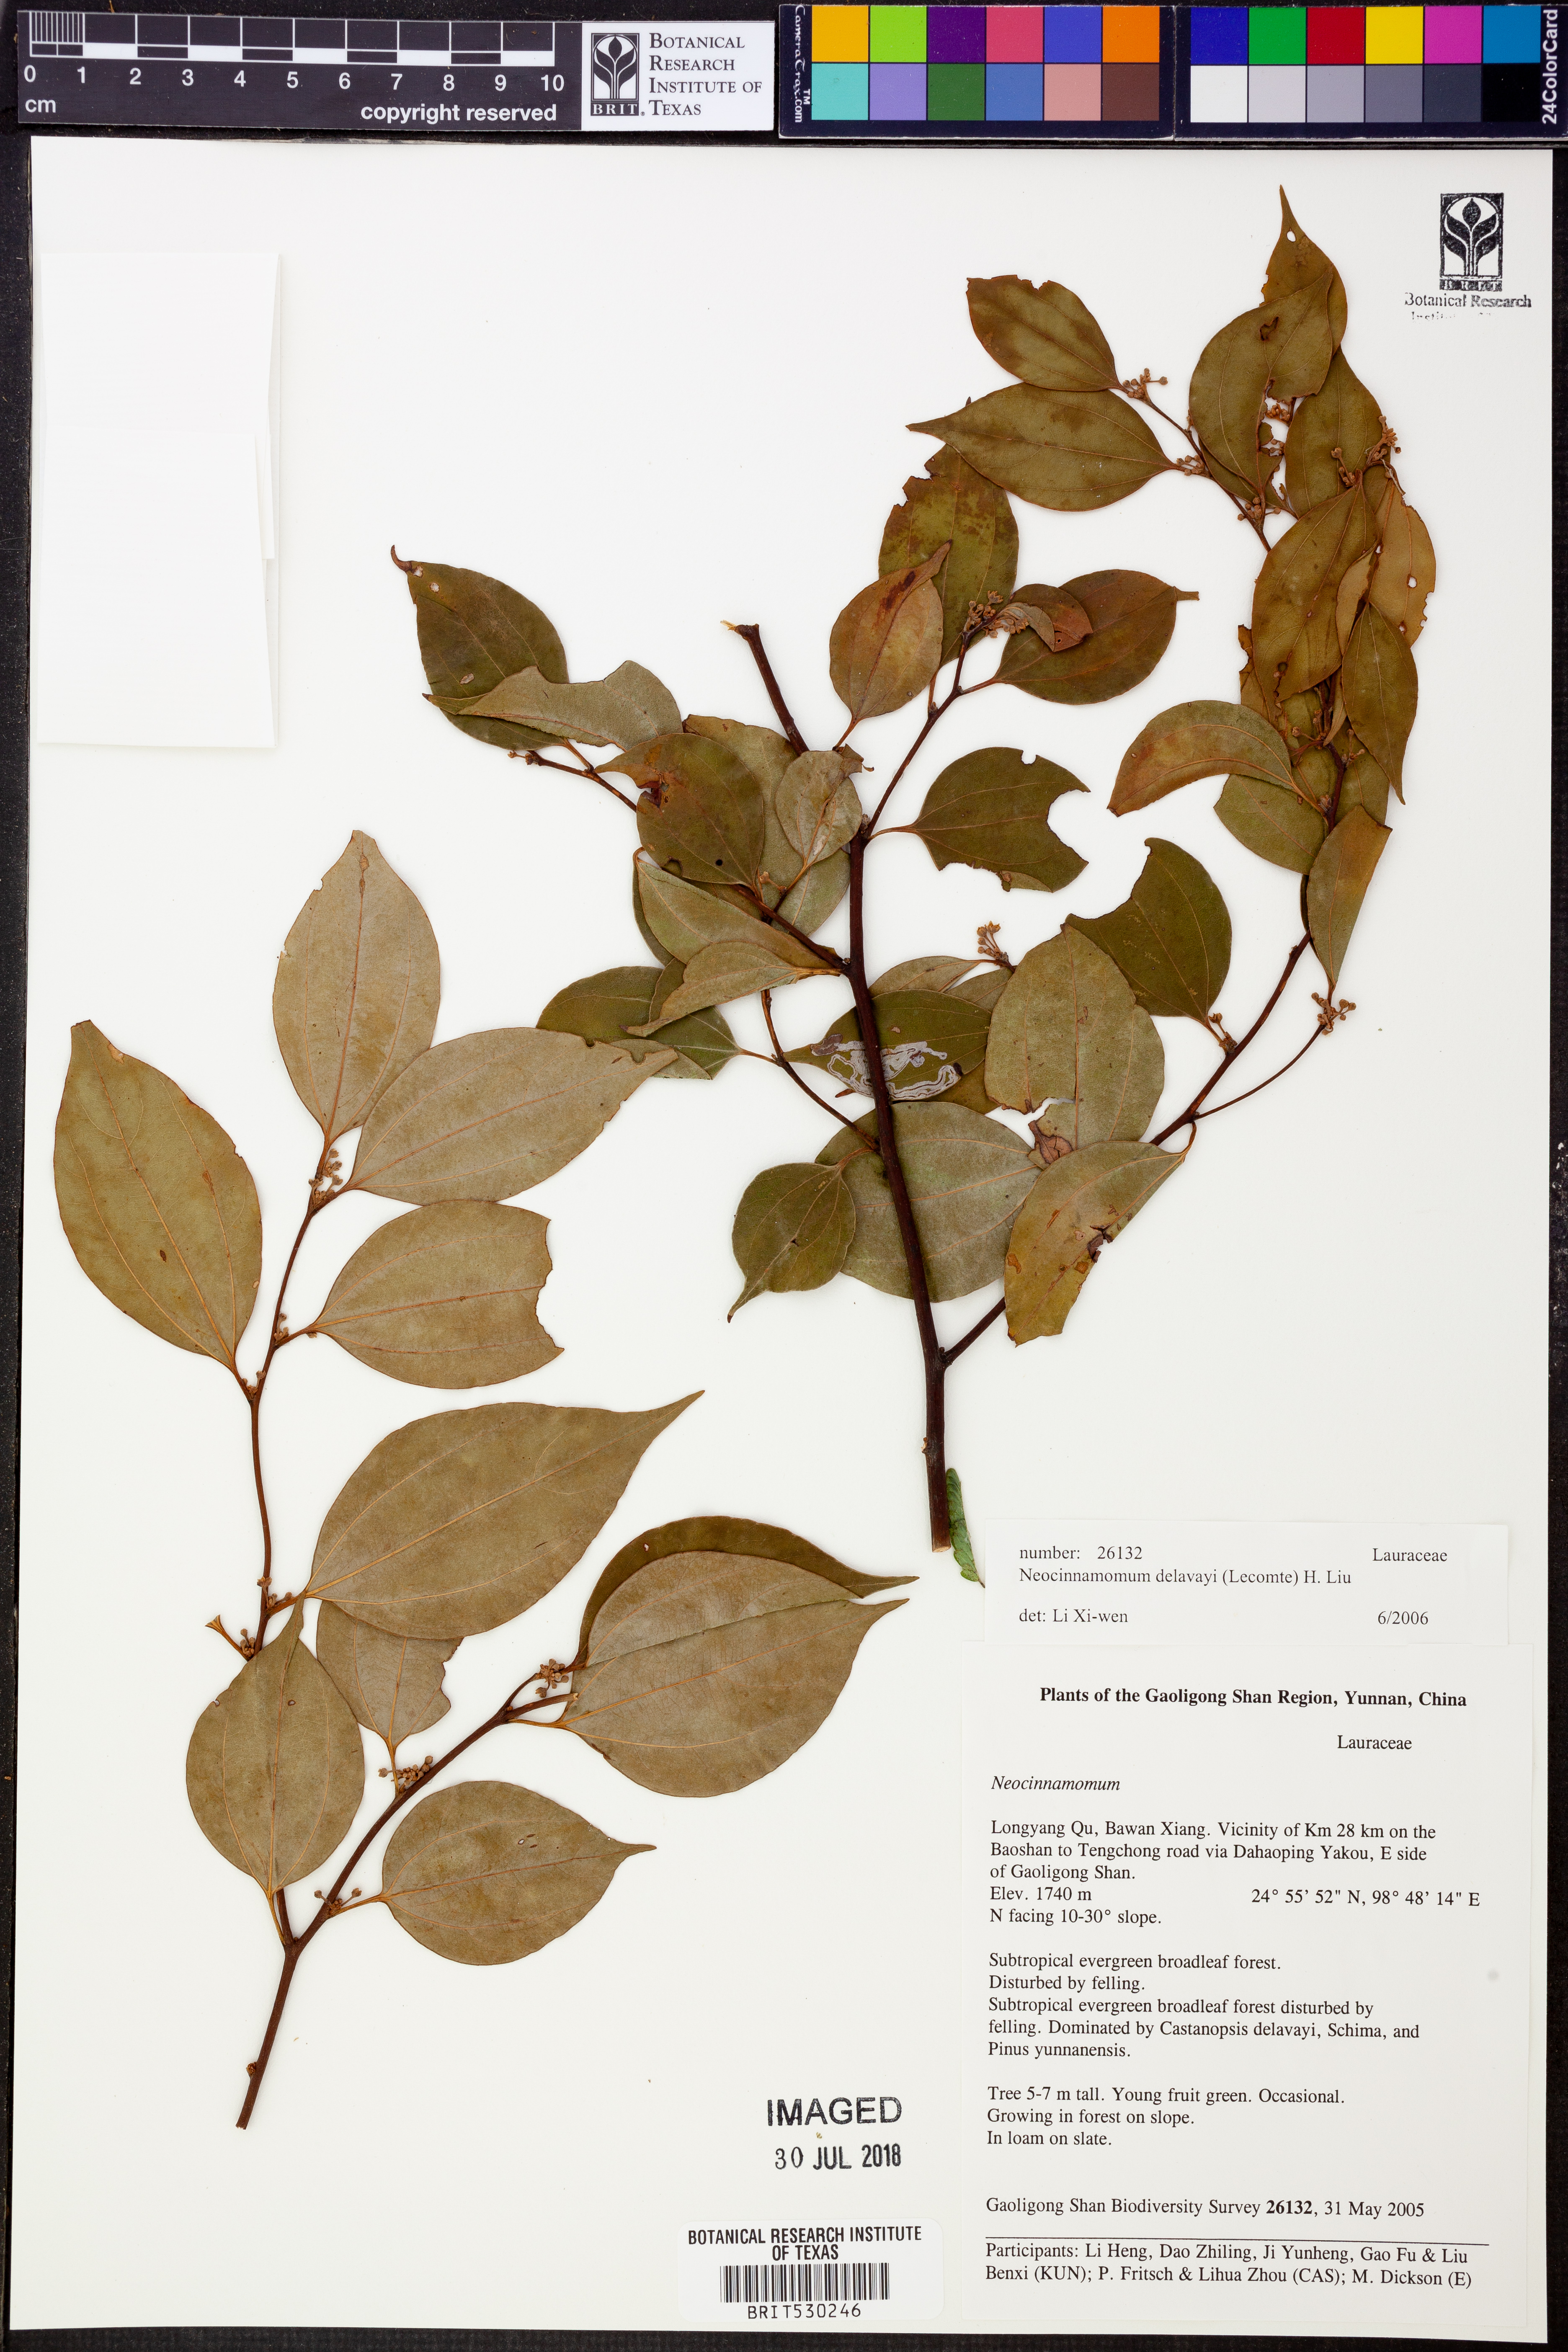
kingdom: Plantae
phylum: Tracheophyta
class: Magnoliopsida
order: Laurales
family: Lauraceae
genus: Neocinnamomum
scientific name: Neocinnamomum delavayi
